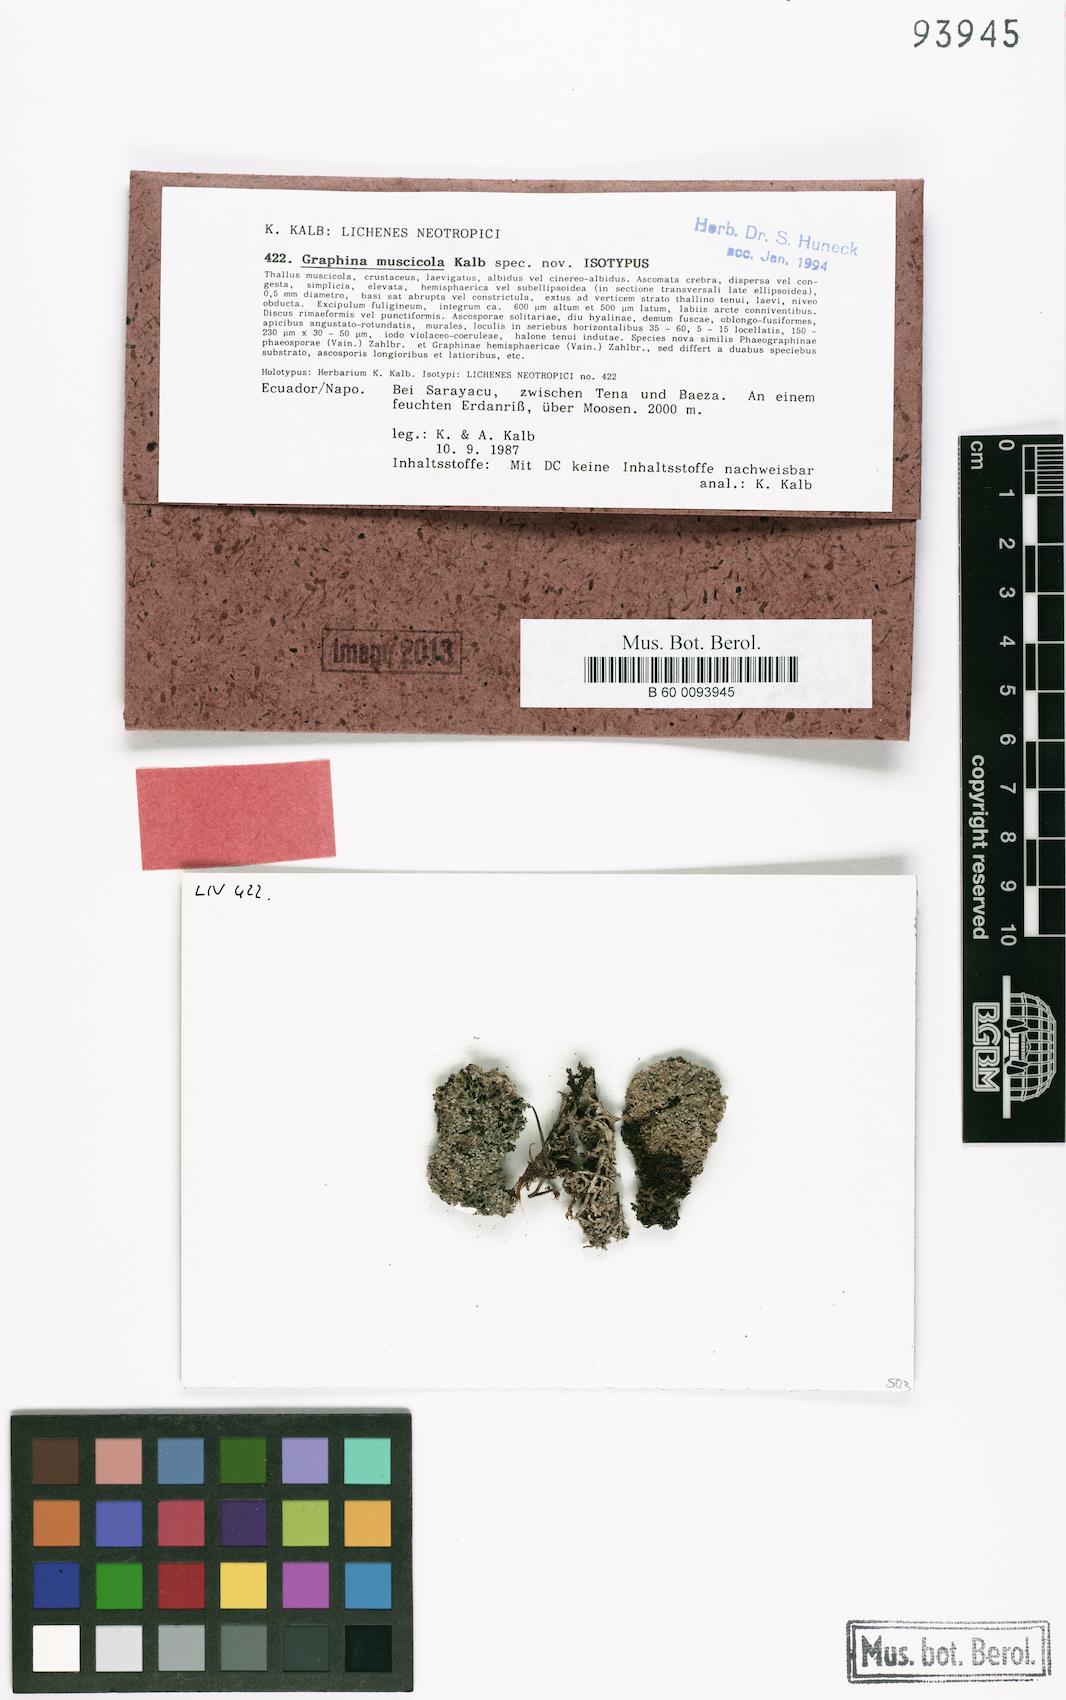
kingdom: Fungi
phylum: Ascomycota
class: Lecanoromycetes
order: Ostropales
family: Graphidaceae
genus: Graphis
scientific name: Graphis muscicola
